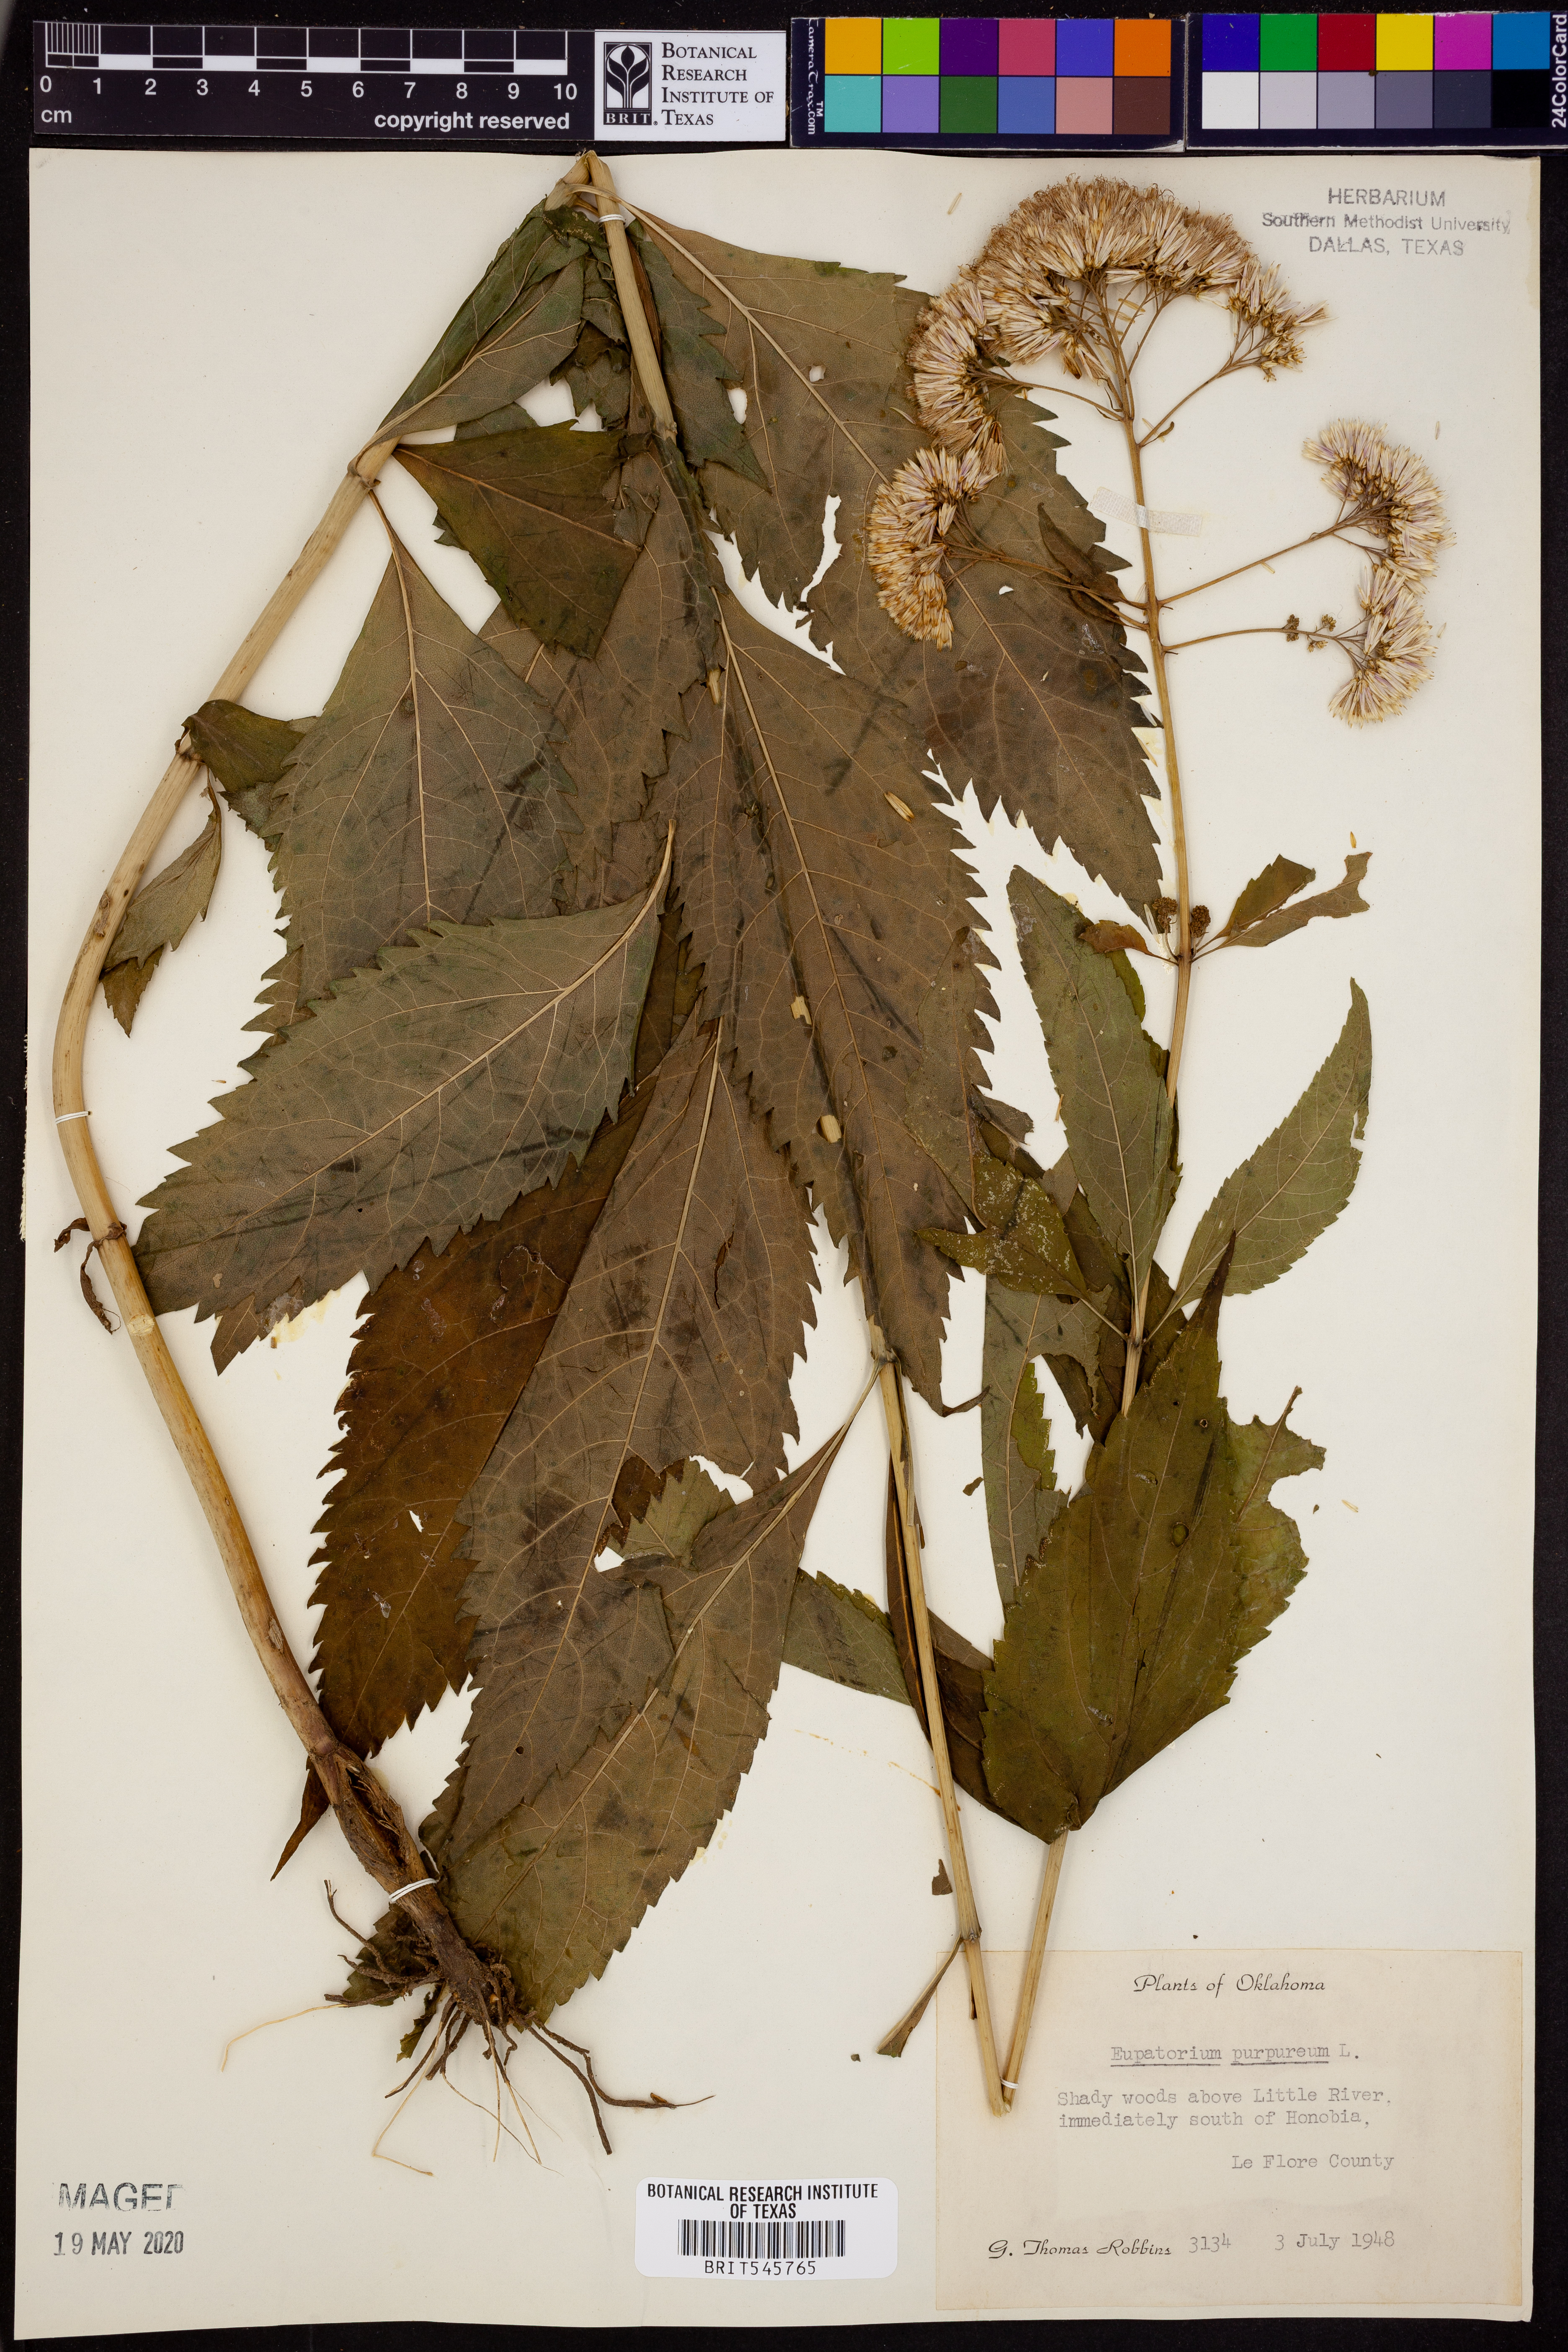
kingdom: Plantae
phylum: Tracheophyta
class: Magnoliopsida
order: Asterales
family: Asteraceae
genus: Eupatorium
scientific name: Eupatorium quaternum
